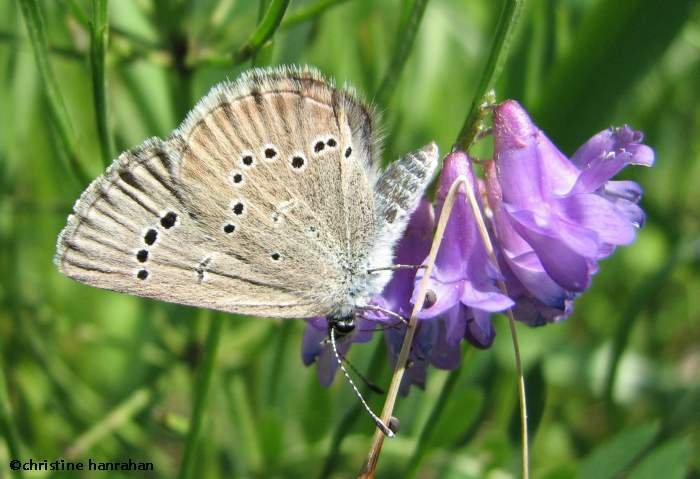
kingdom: Animalia
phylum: Arthropoda
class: Insecta
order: Lepidoptera
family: Lycaenidae
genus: Glaucopsyche
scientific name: Glaucopsyche lygdamus
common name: Silvery Blue
